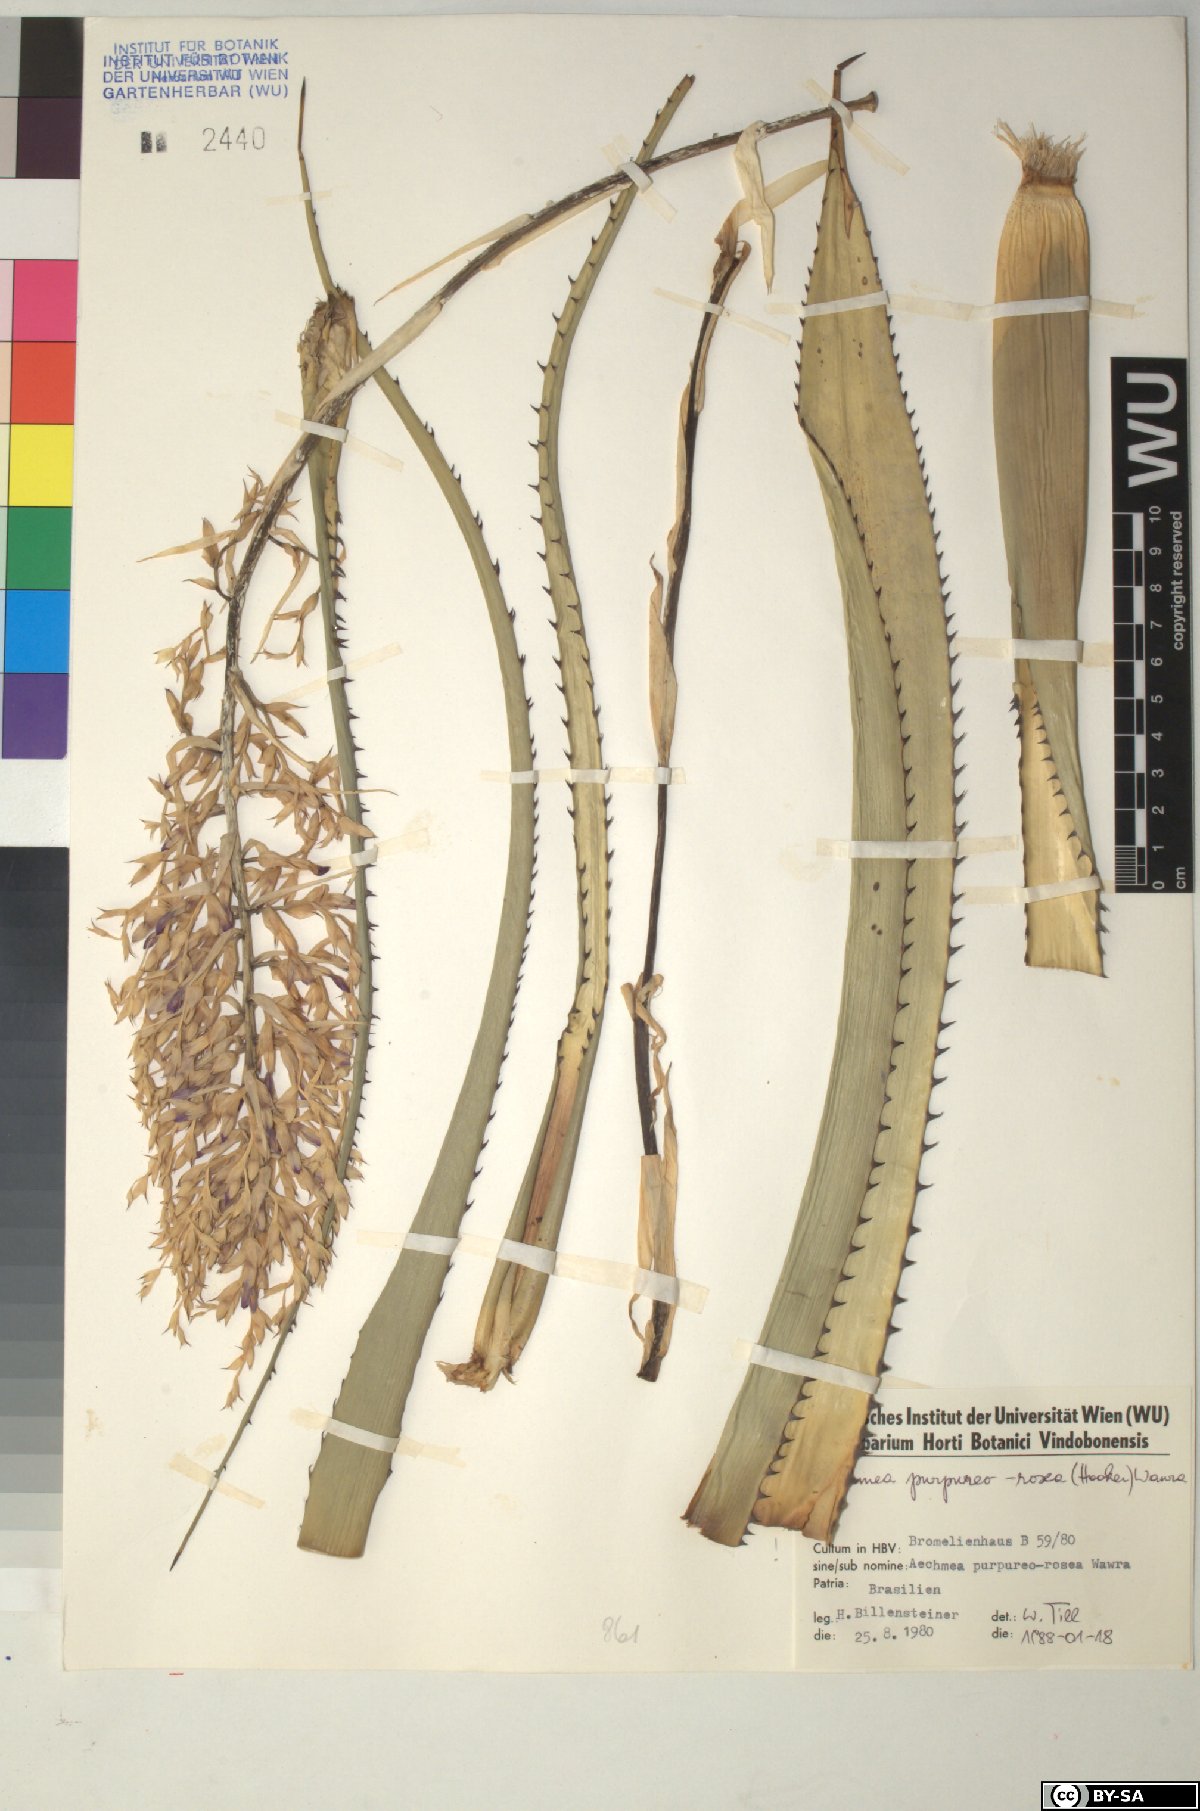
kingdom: Plantae
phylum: Tracheophyta
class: Liliopsida
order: Poales
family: Bromeliaceae
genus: Aechmea
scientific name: Aechmea purpureorosea
